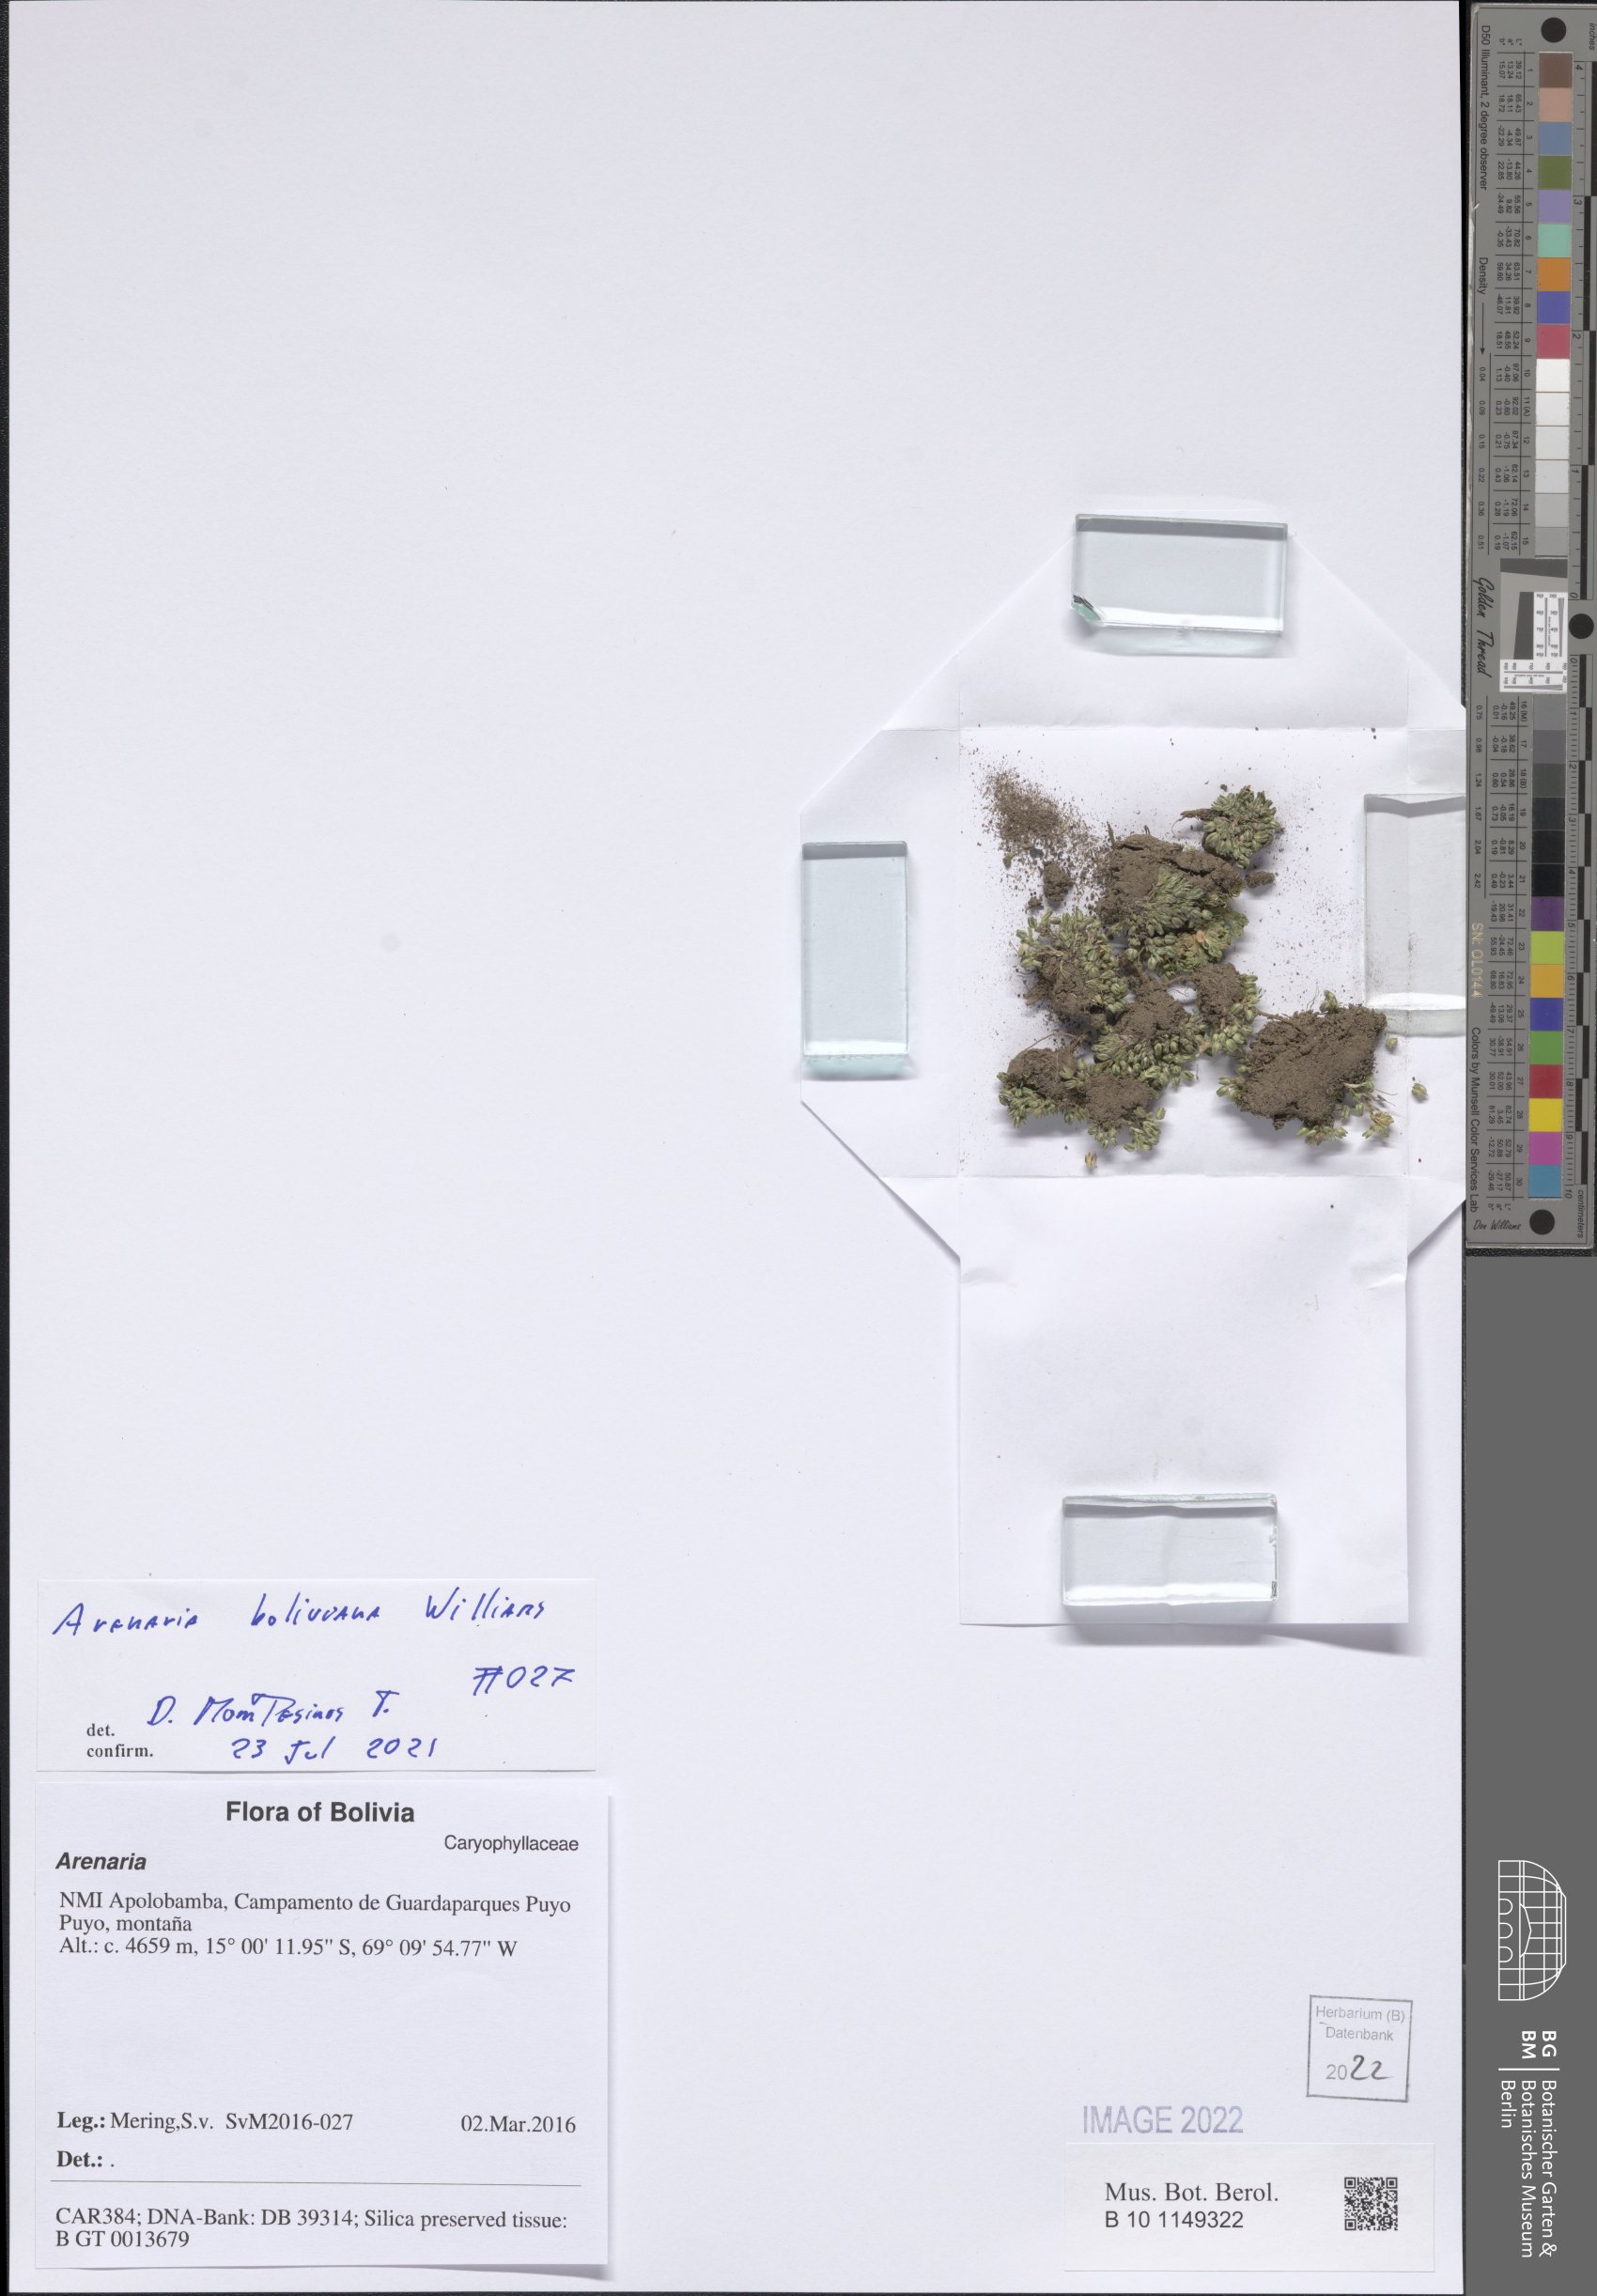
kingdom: Plantae
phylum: Tracheophyta
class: Magnoliopsida
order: Caryophyllales
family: Caryophyllaceae
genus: Arenaria
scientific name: Arenaria boliviana
